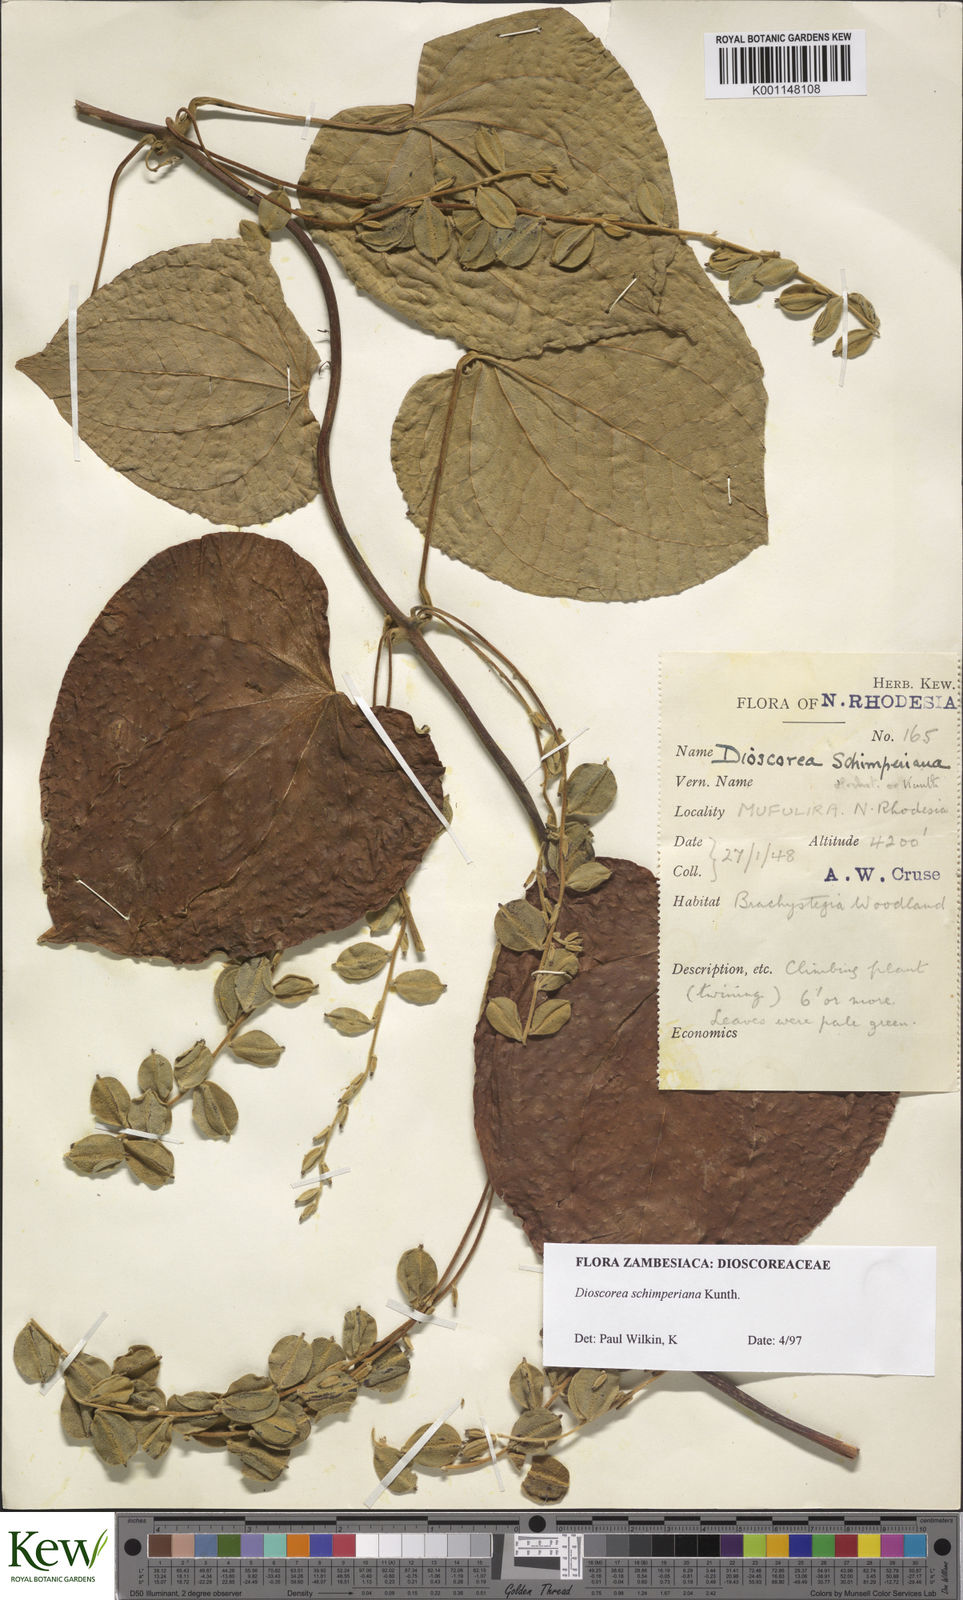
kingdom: Plantae
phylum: Tracheophyta
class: Liliopsida
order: Dioscoreales
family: Dioscoreaceae
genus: Dioscorea
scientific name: Dioscorea schimperiana
